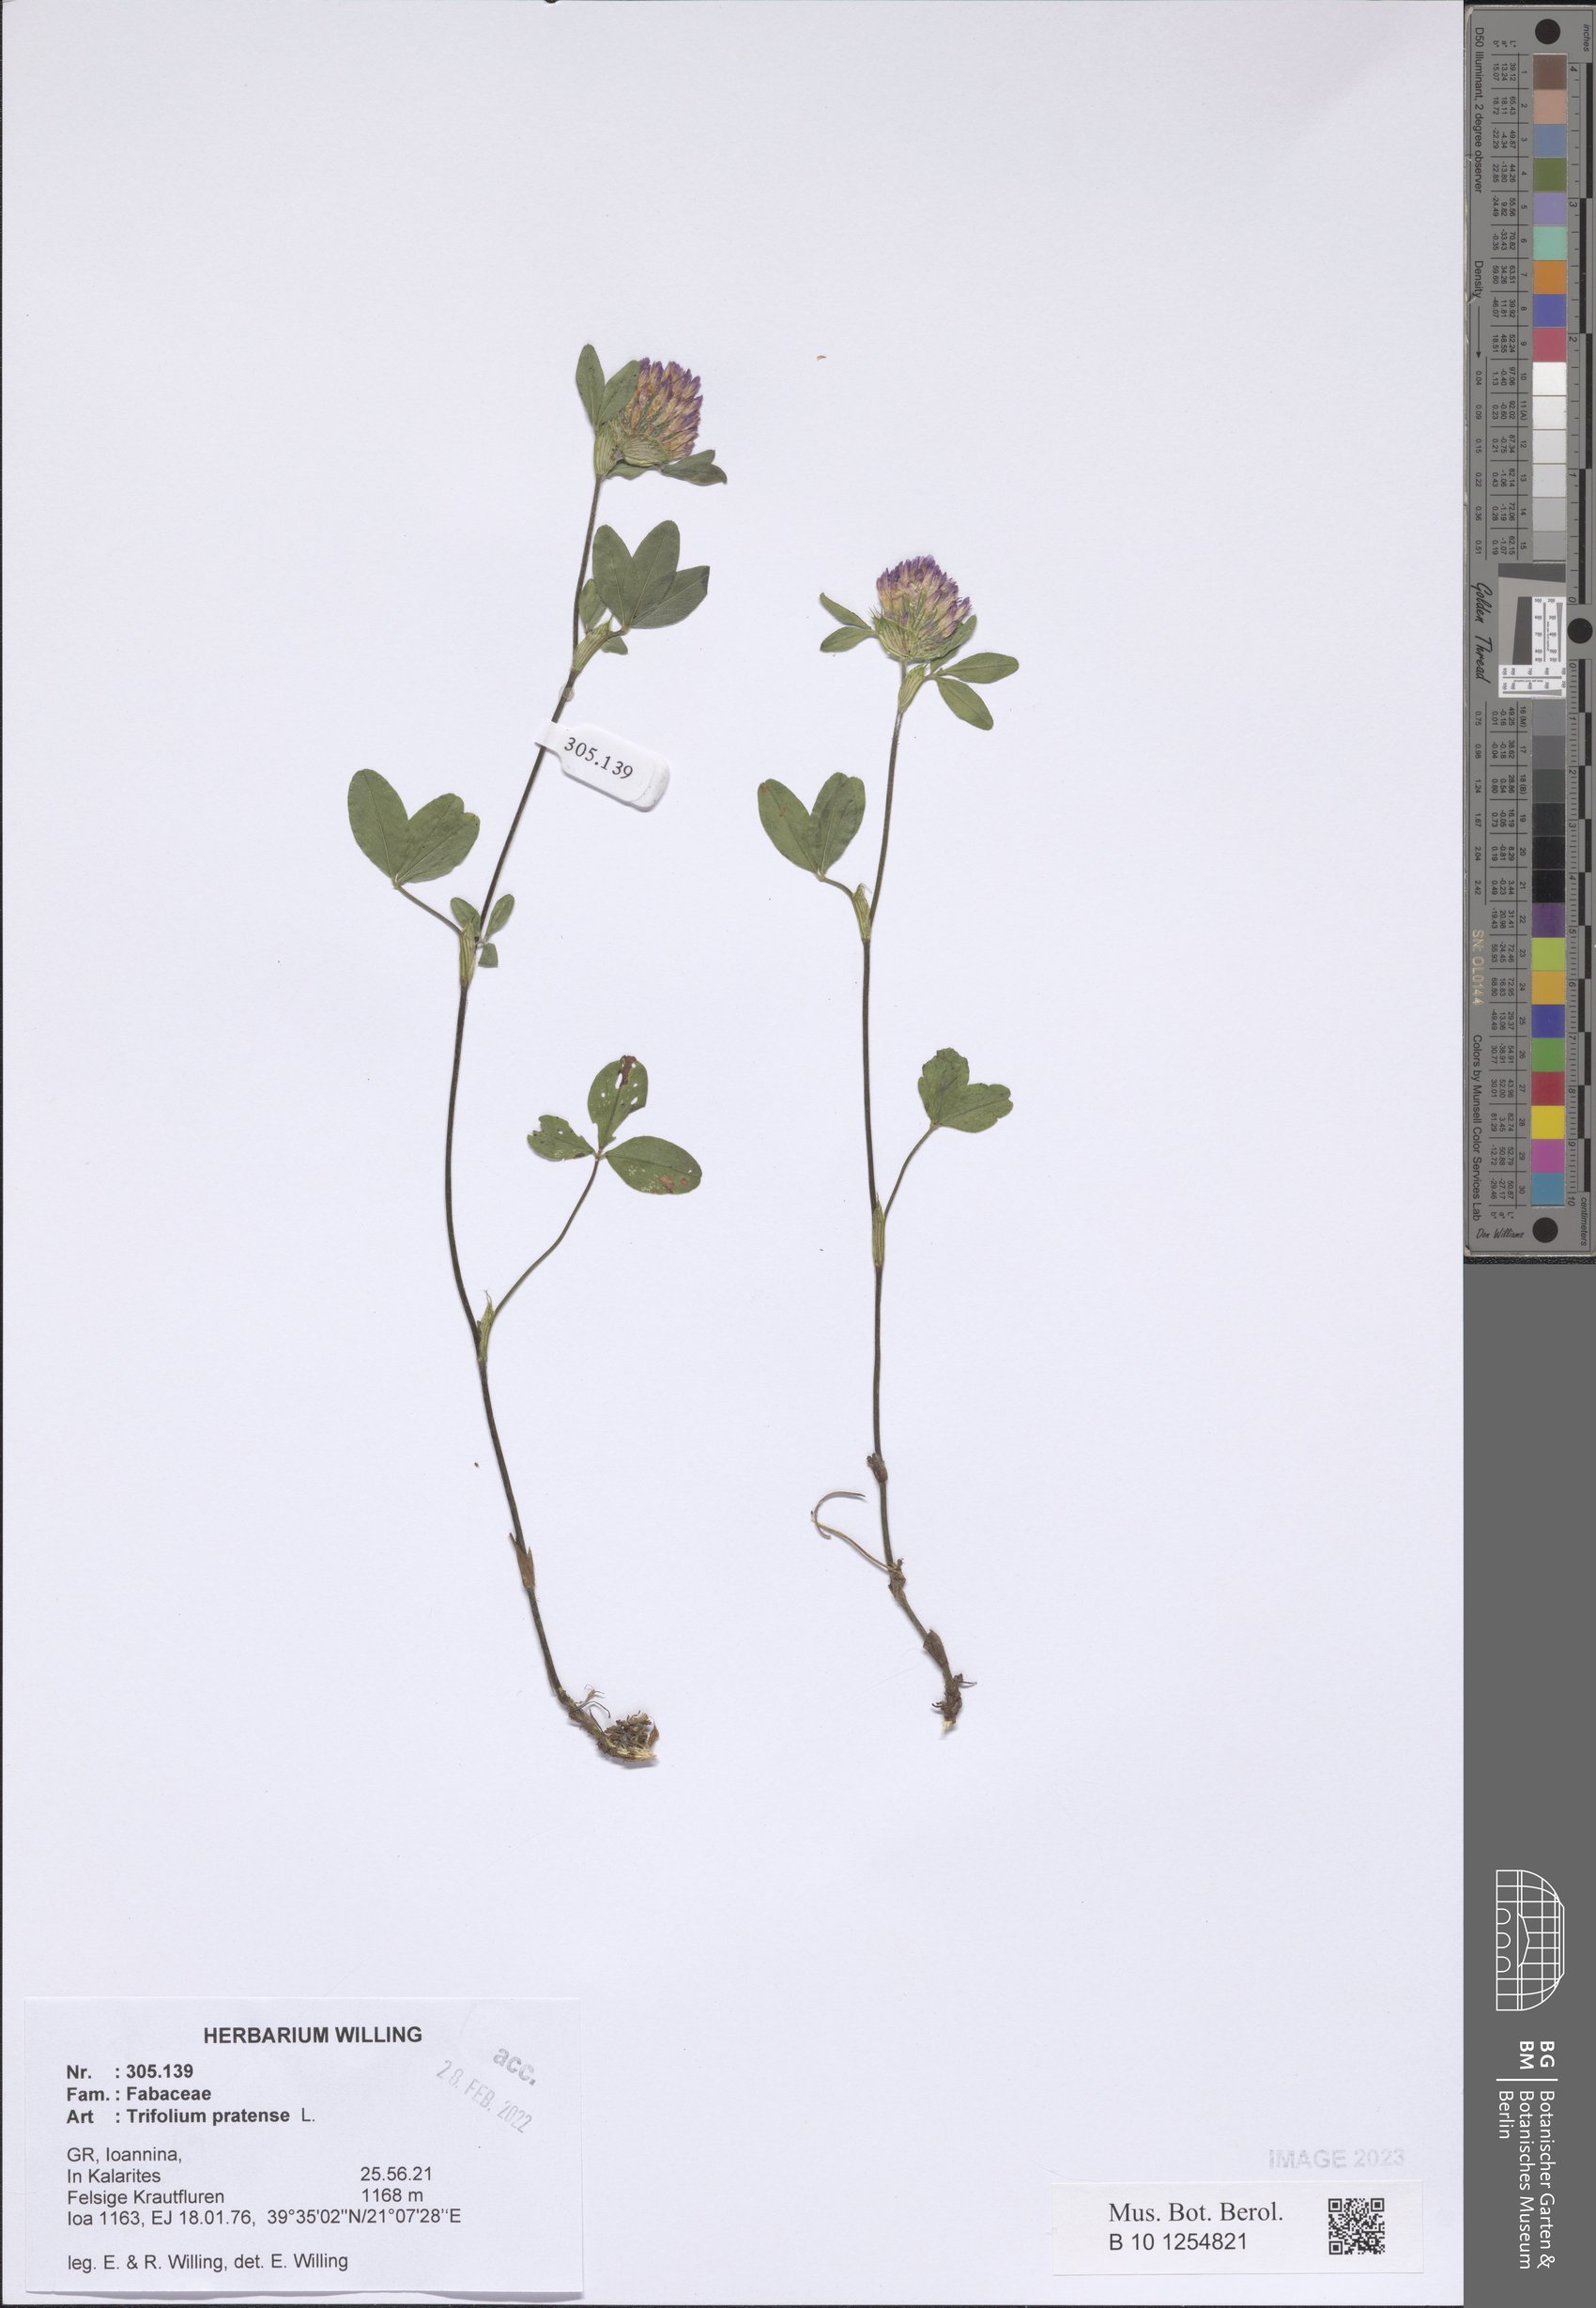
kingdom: Plantae
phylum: Tracheophyta
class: Magnoliopsida
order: Fabales
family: Fabaceae
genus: Trifolium
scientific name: Trifolium pratense
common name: Red clover
